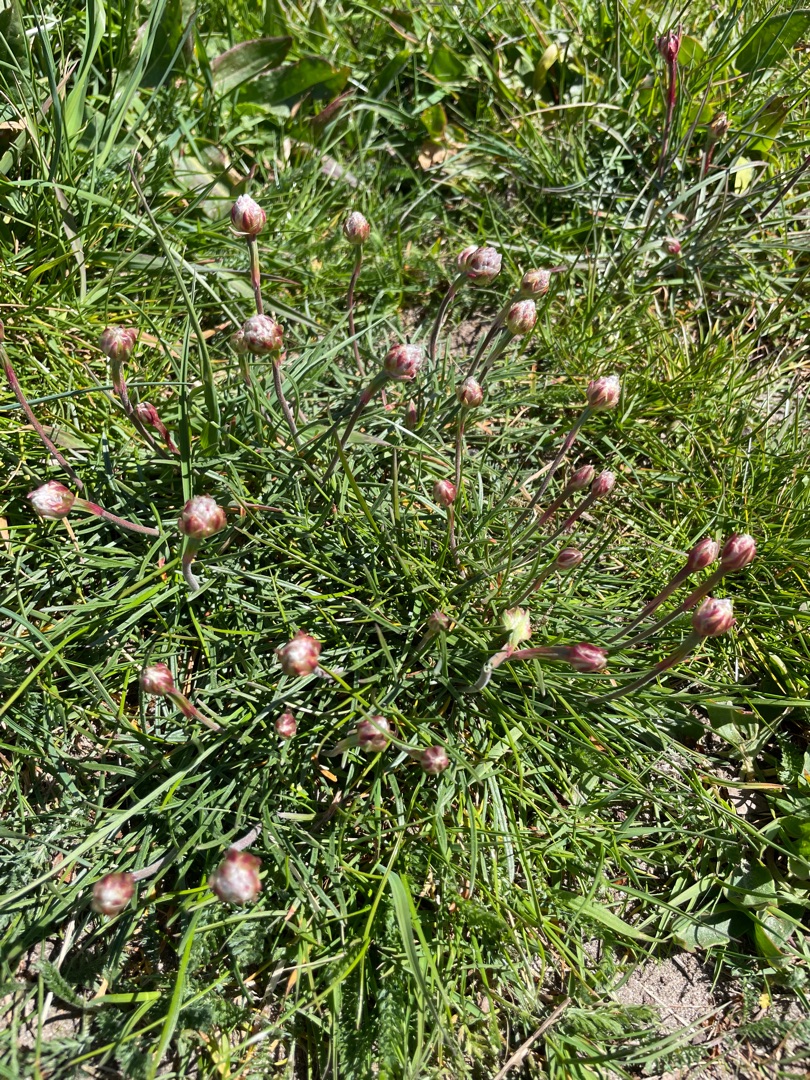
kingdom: Plantae
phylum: Tracheophyta
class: Magnoliopsida
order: Caryophyllales
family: Plumbaginaceae
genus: Armeria
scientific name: Armeria maritima
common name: Engelskgræs
